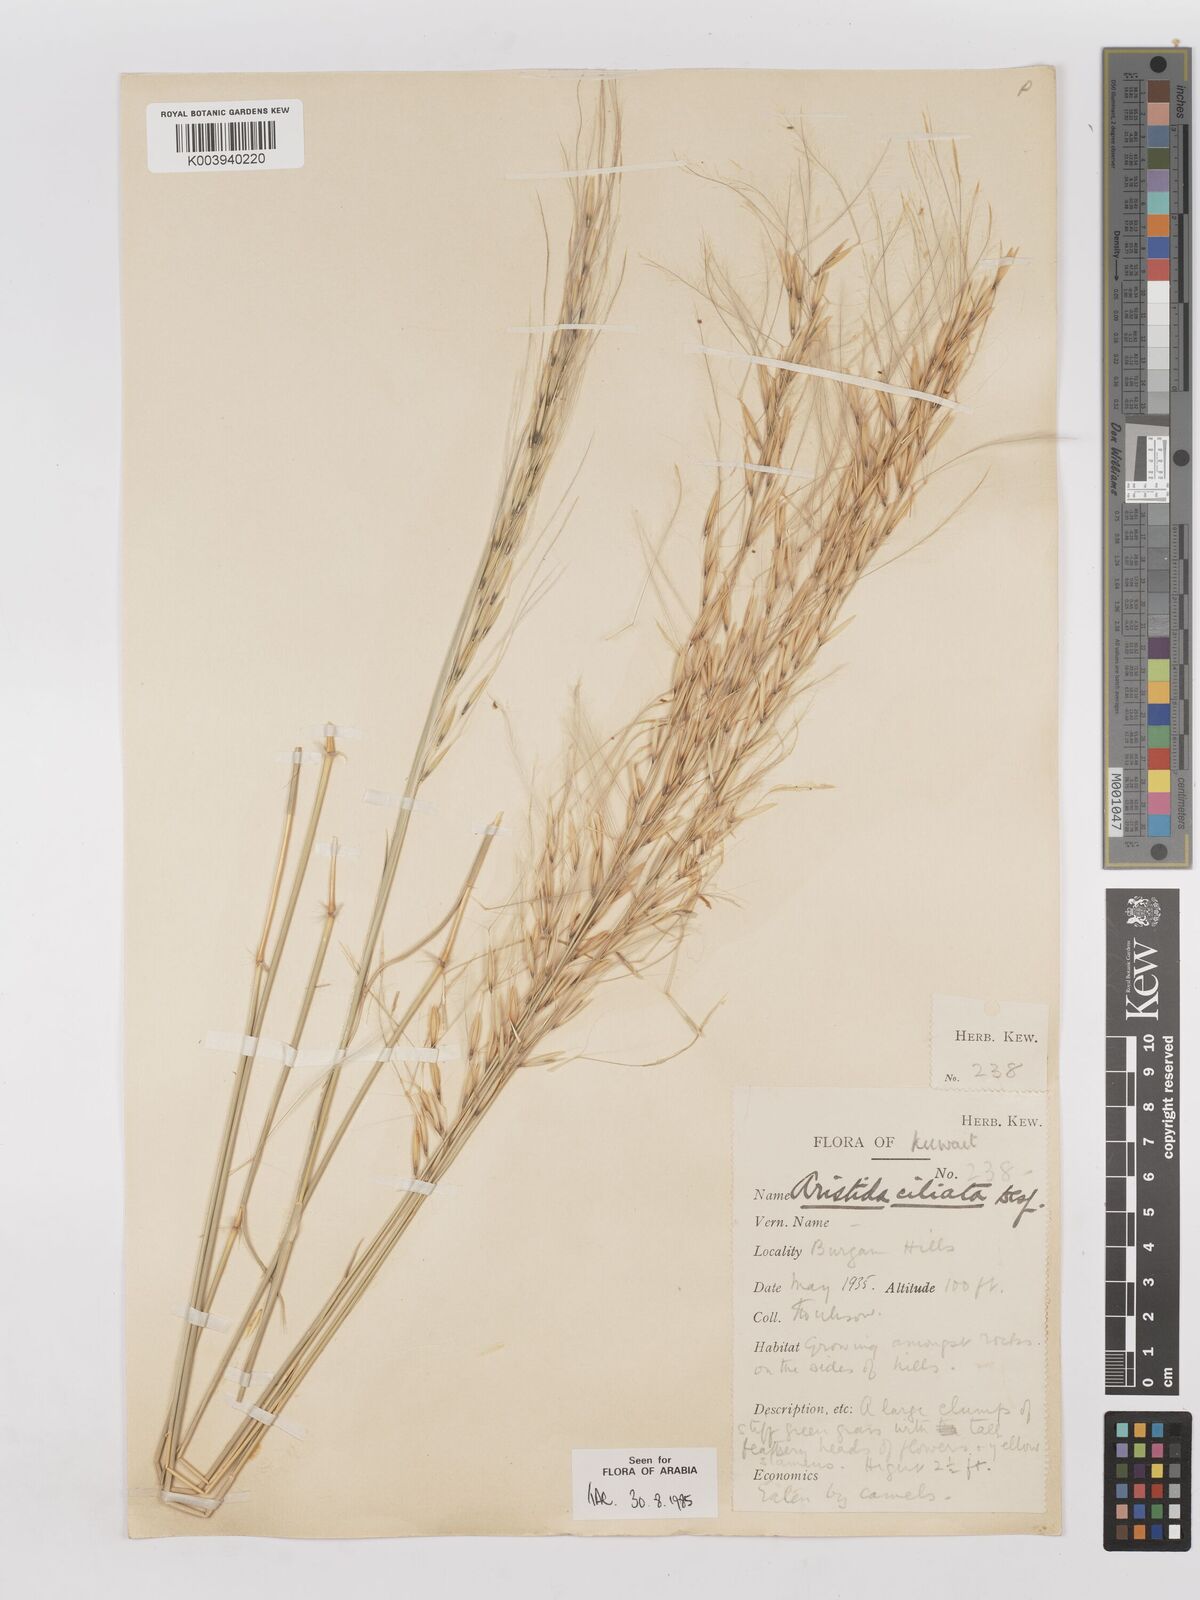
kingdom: Plantae
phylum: Tracheophyta
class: Liliopsida
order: Poales
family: Poaceae
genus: Stipagrostis
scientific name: Stipagrostis ciliata
